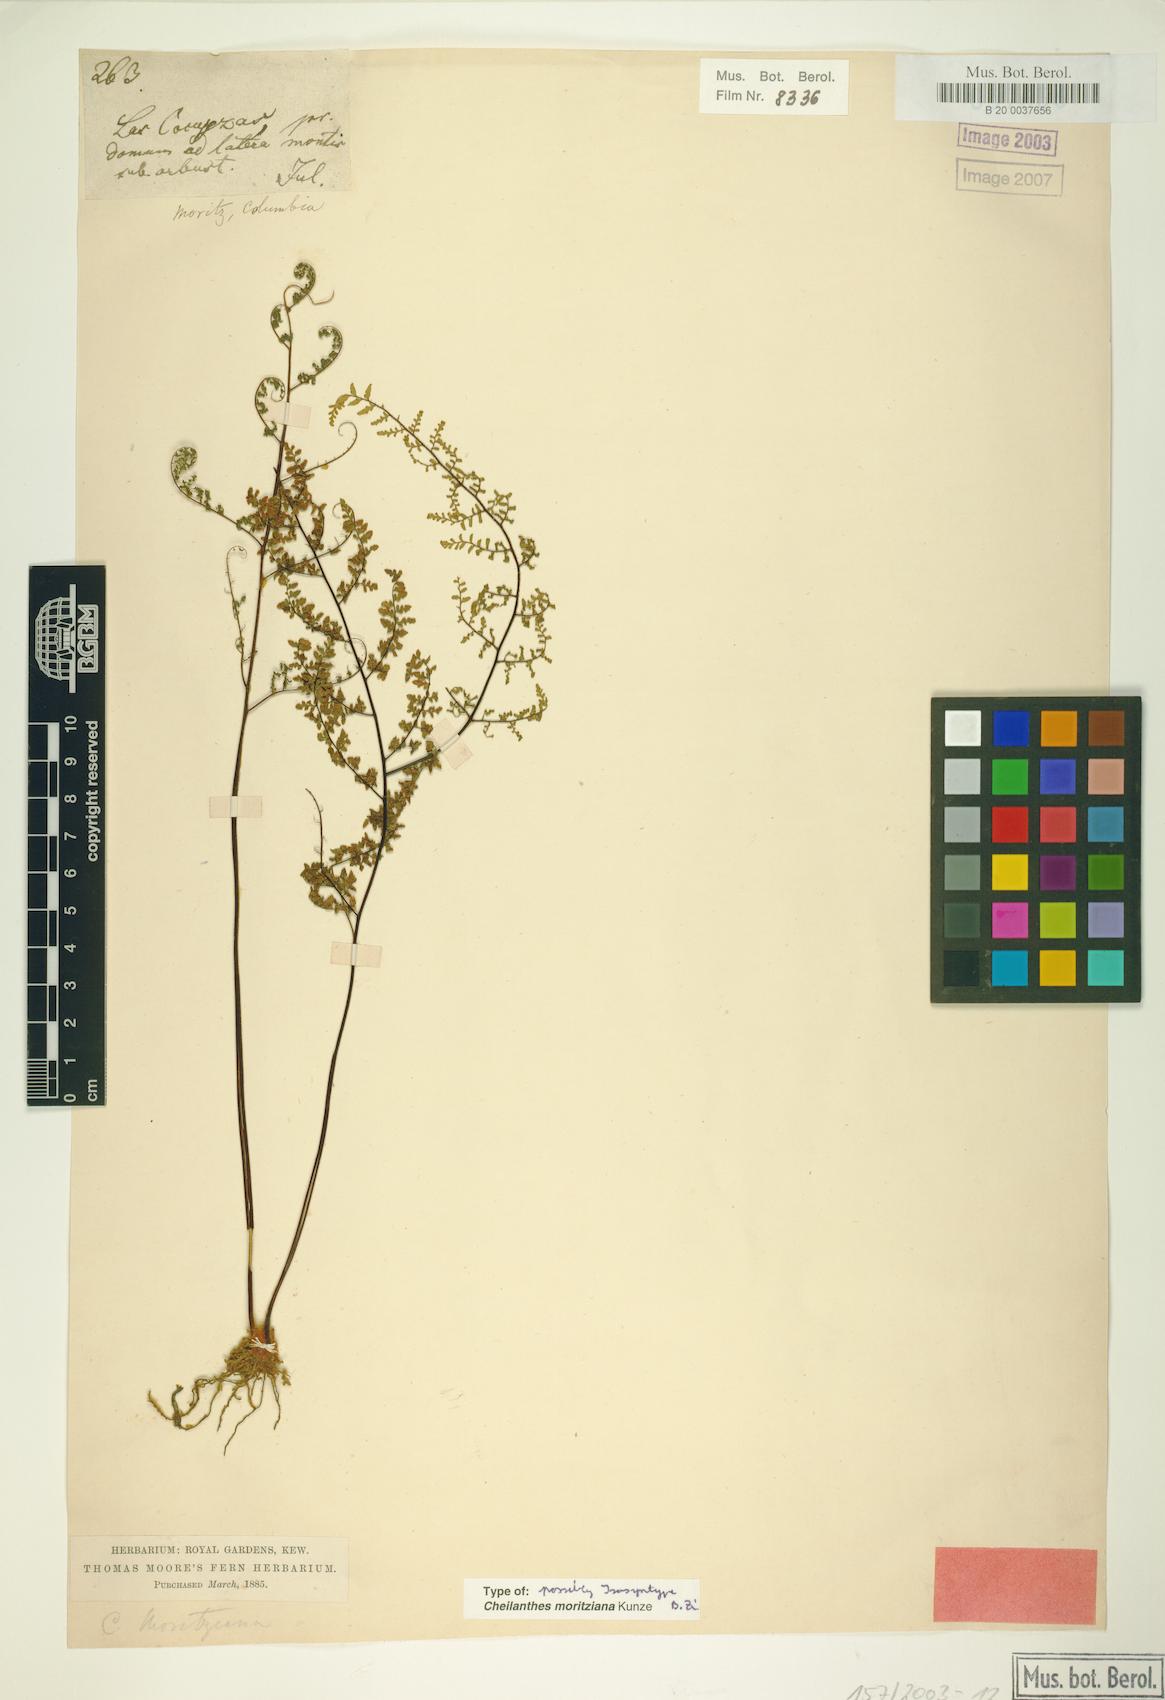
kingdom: Plantae
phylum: Tracheophyta
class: Polypodiopsida
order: Polypodiales
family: Pteridaceae
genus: Myriopteris
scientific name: Myriopteris moritziana
